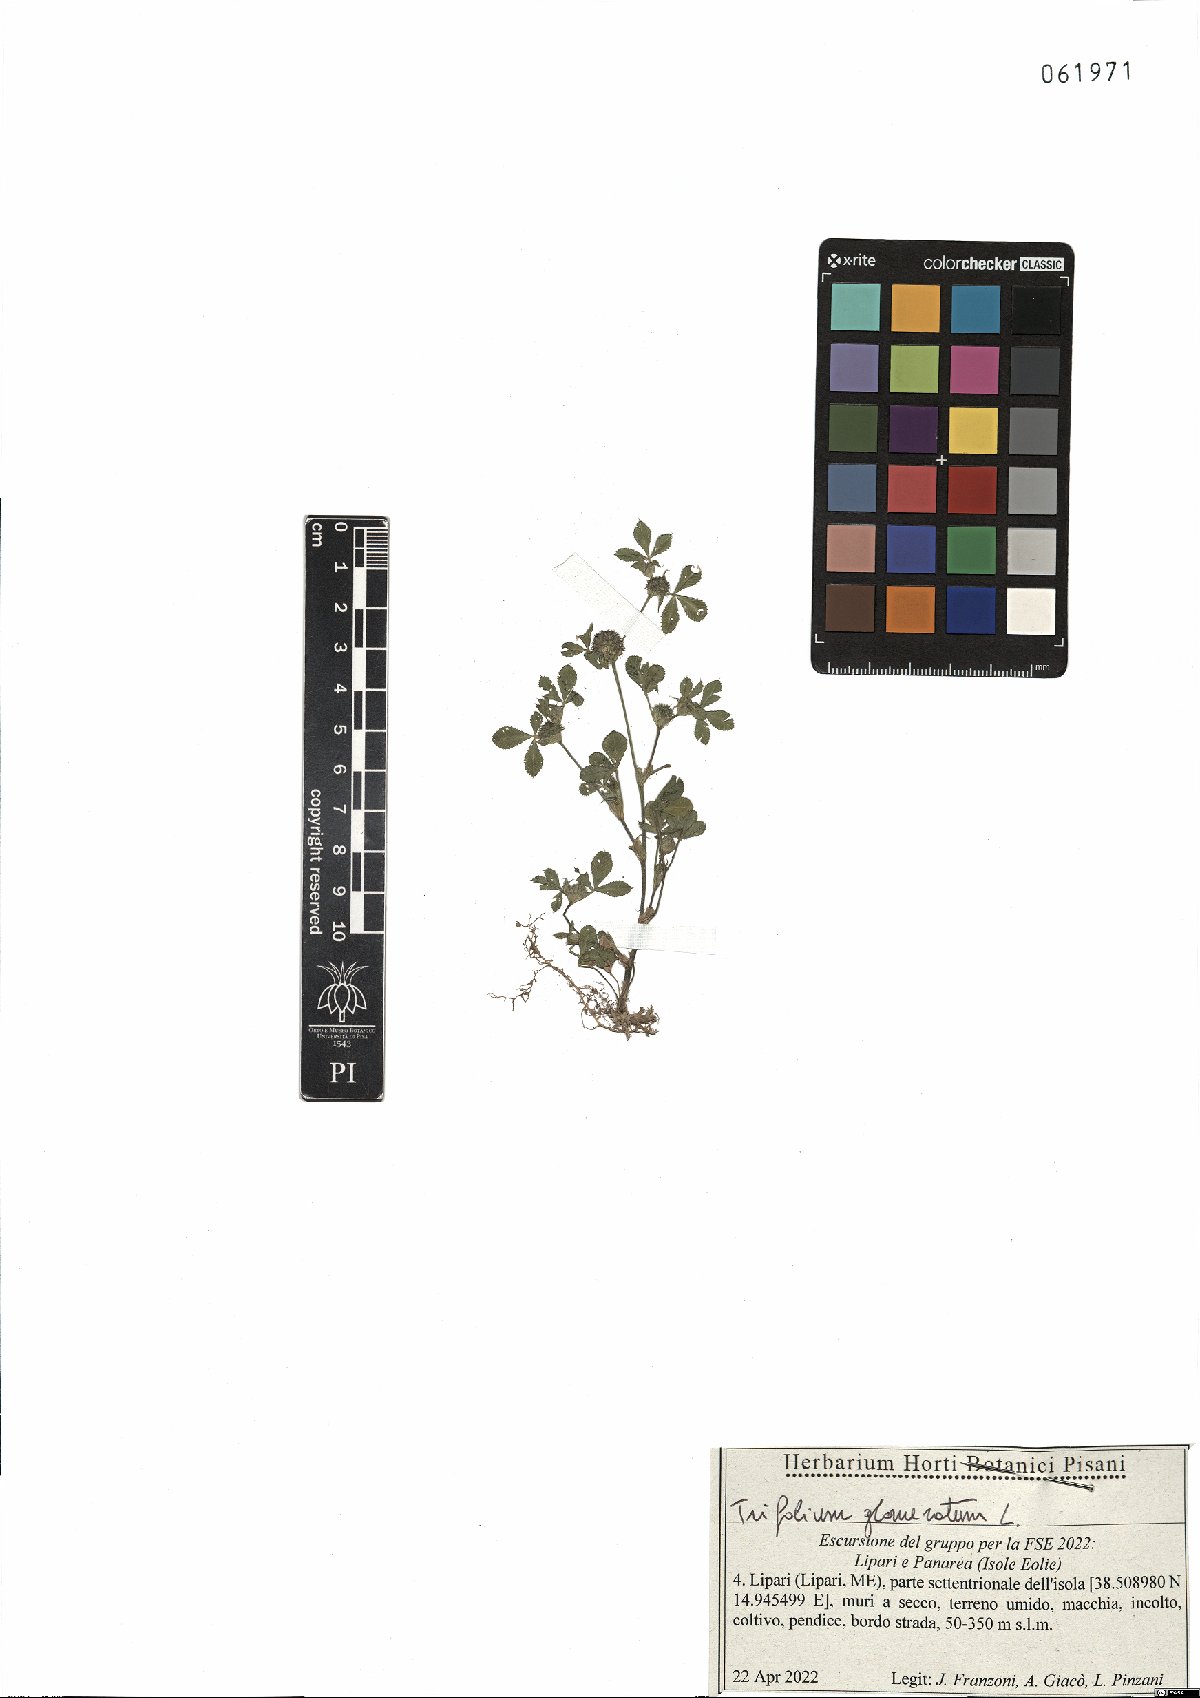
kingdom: Plantae
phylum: Tracheophyta
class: Magnoliopsida
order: Fabales
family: Fabaceae
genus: Trifolium
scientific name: Trifolium glomeratum
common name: Clustered clover
